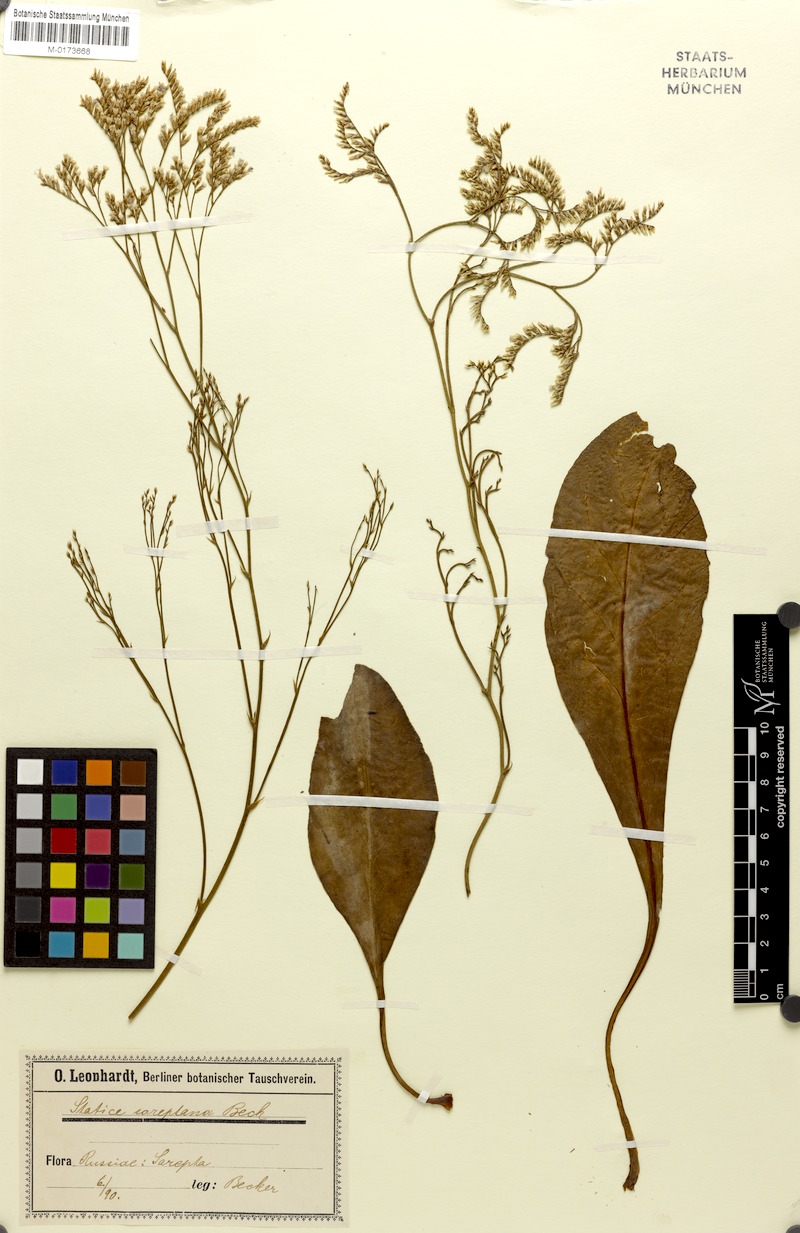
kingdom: Plantae
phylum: Tracheophyta
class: Magnoliopsida
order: Caryophyllales
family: Plumbaginaceae
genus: Limonium
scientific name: Limonium sareptanum
